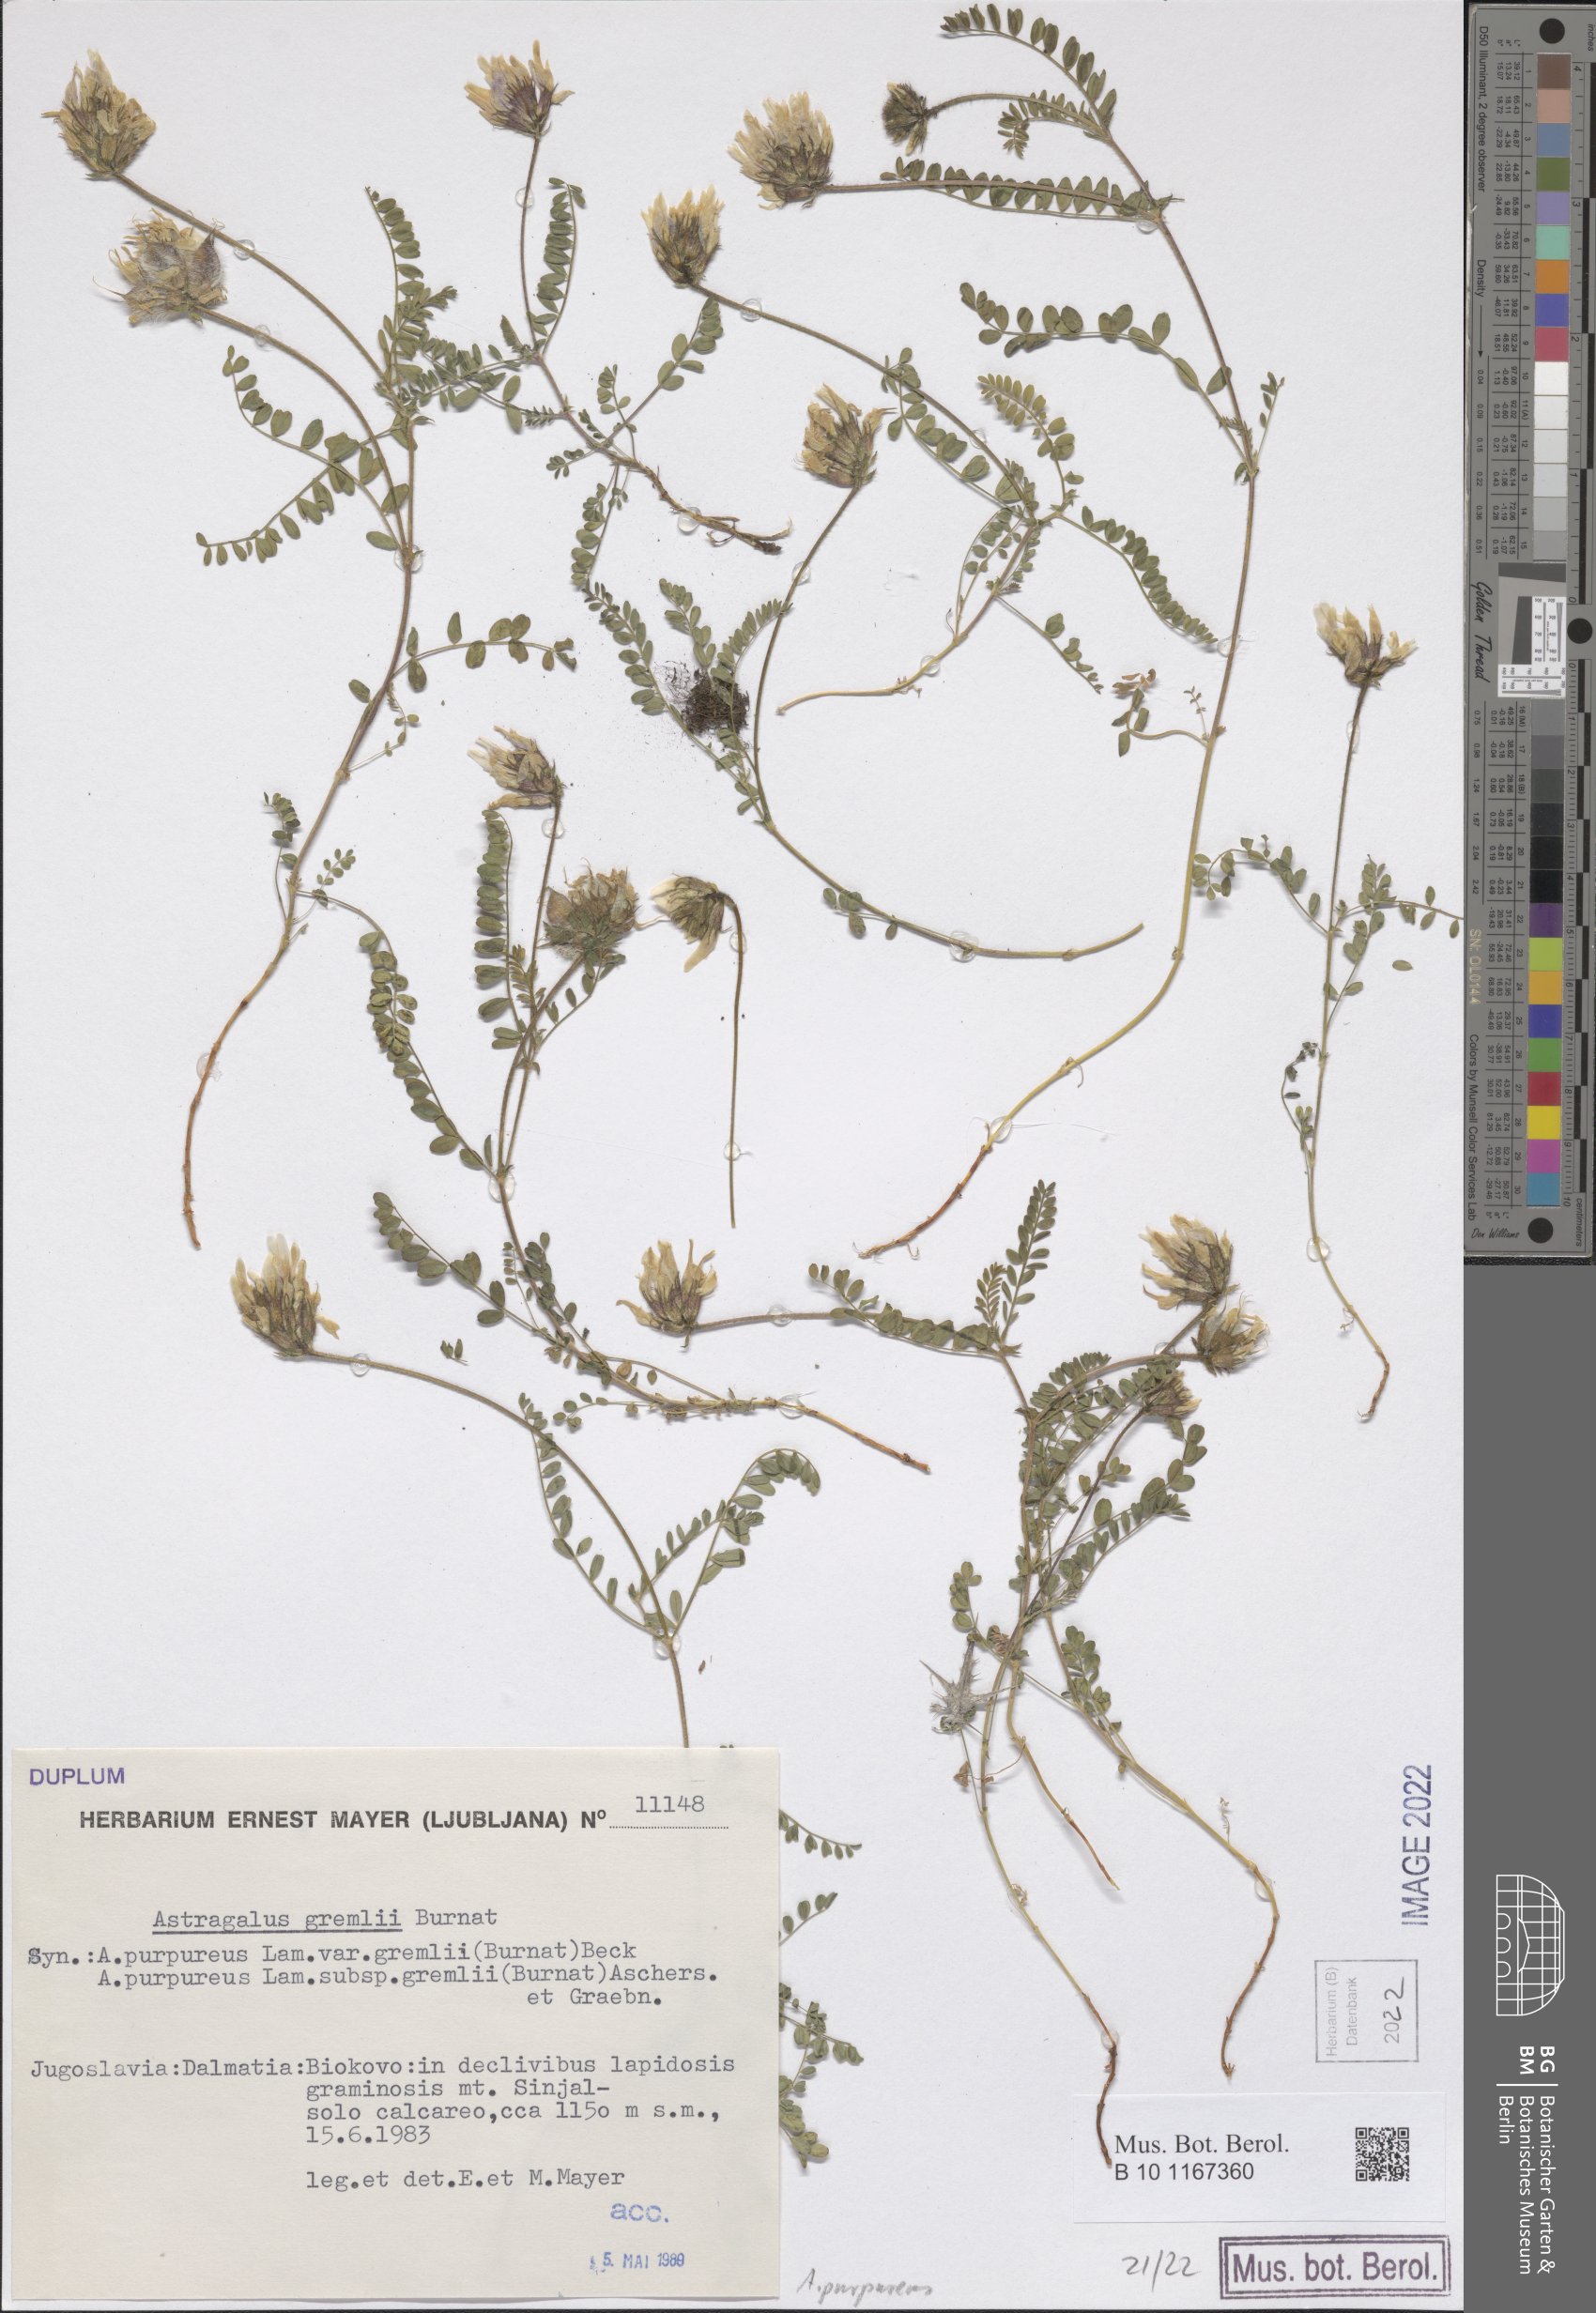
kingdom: Plantae
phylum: Tracheophyta
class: Magnoliopsida
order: Fabales
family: Fabaceae
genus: Astragalus
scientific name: Astragalus hypoglottis
